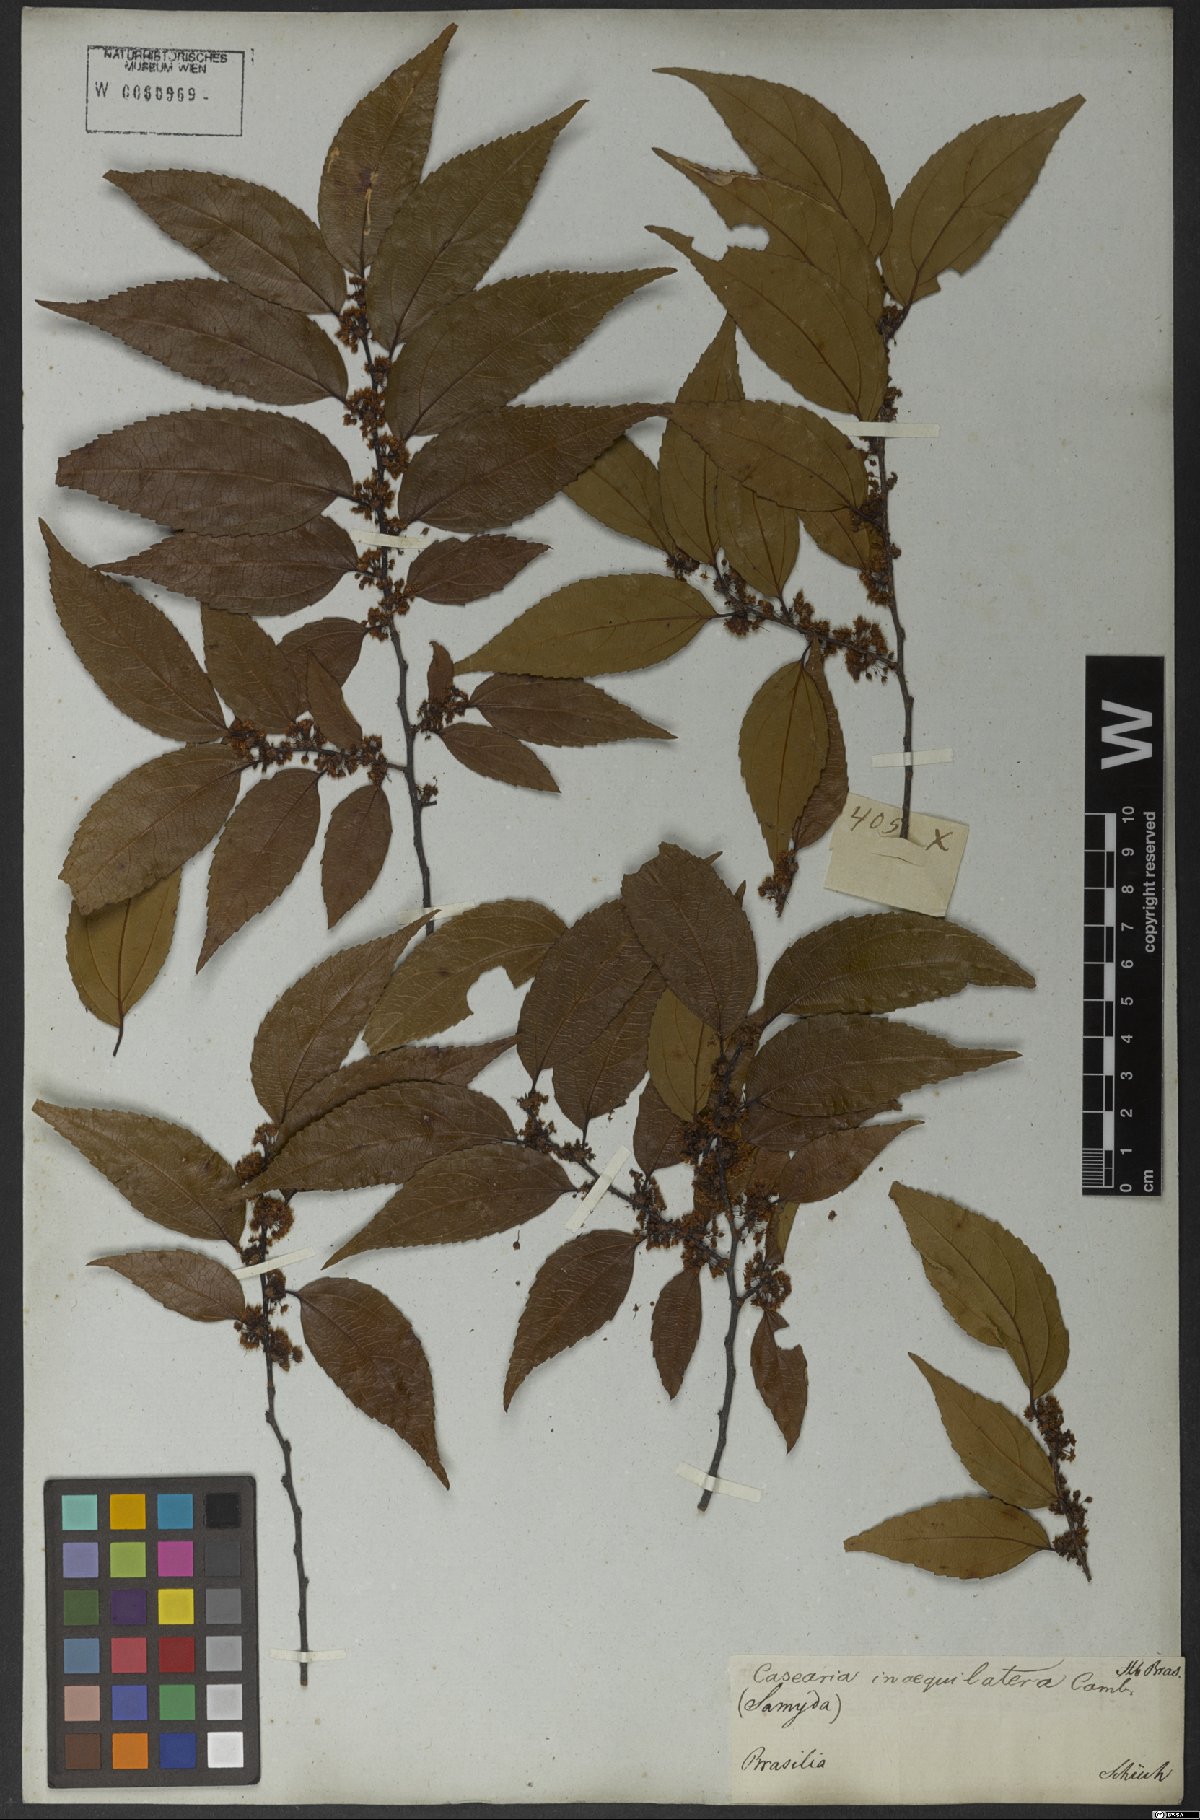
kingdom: Plantae
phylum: Tracheophyta
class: Magnoliopsida
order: Malpighiales
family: Salicaceae
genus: Casearia
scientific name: Casearia obliqua
